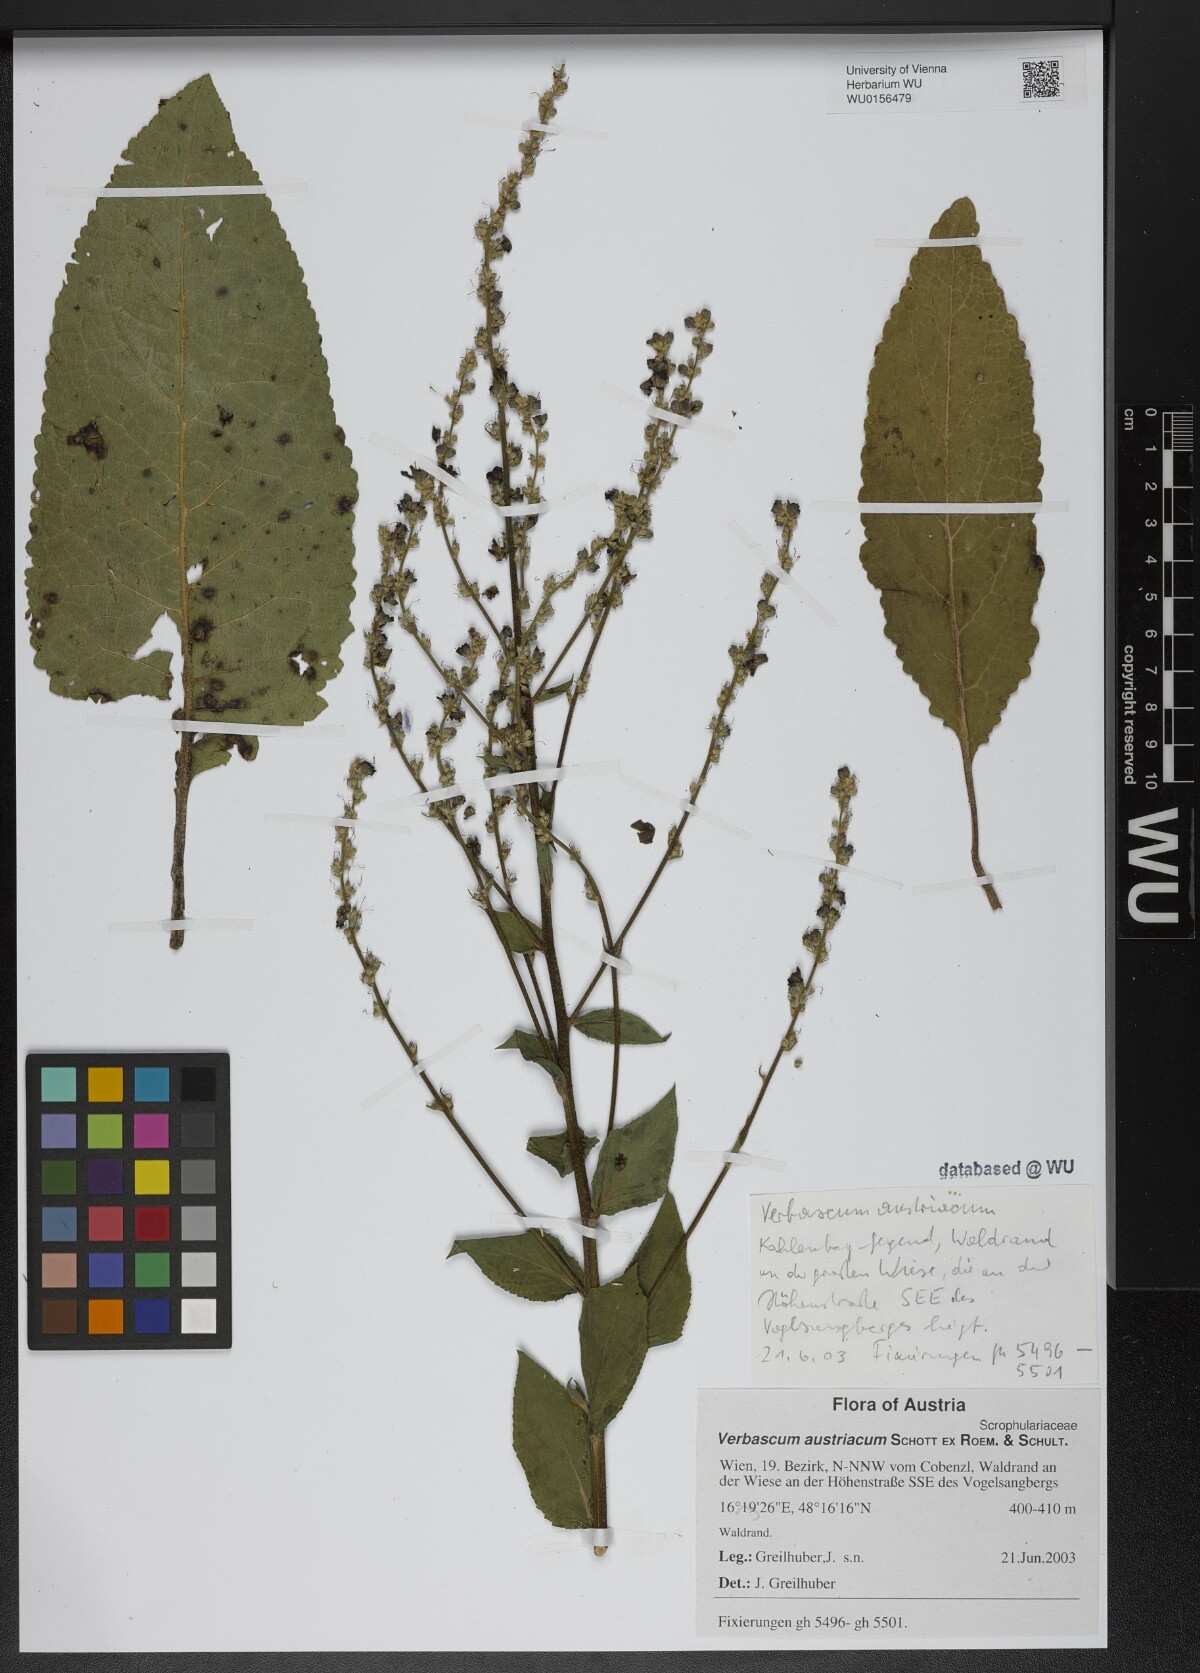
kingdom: Plantae
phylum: Tracheophyta
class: Magnoliopsida
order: Lamiales
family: Scrophulariaceae
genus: Verbascum
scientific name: Verbascum chaixii
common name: Nettle-leaved mullein
